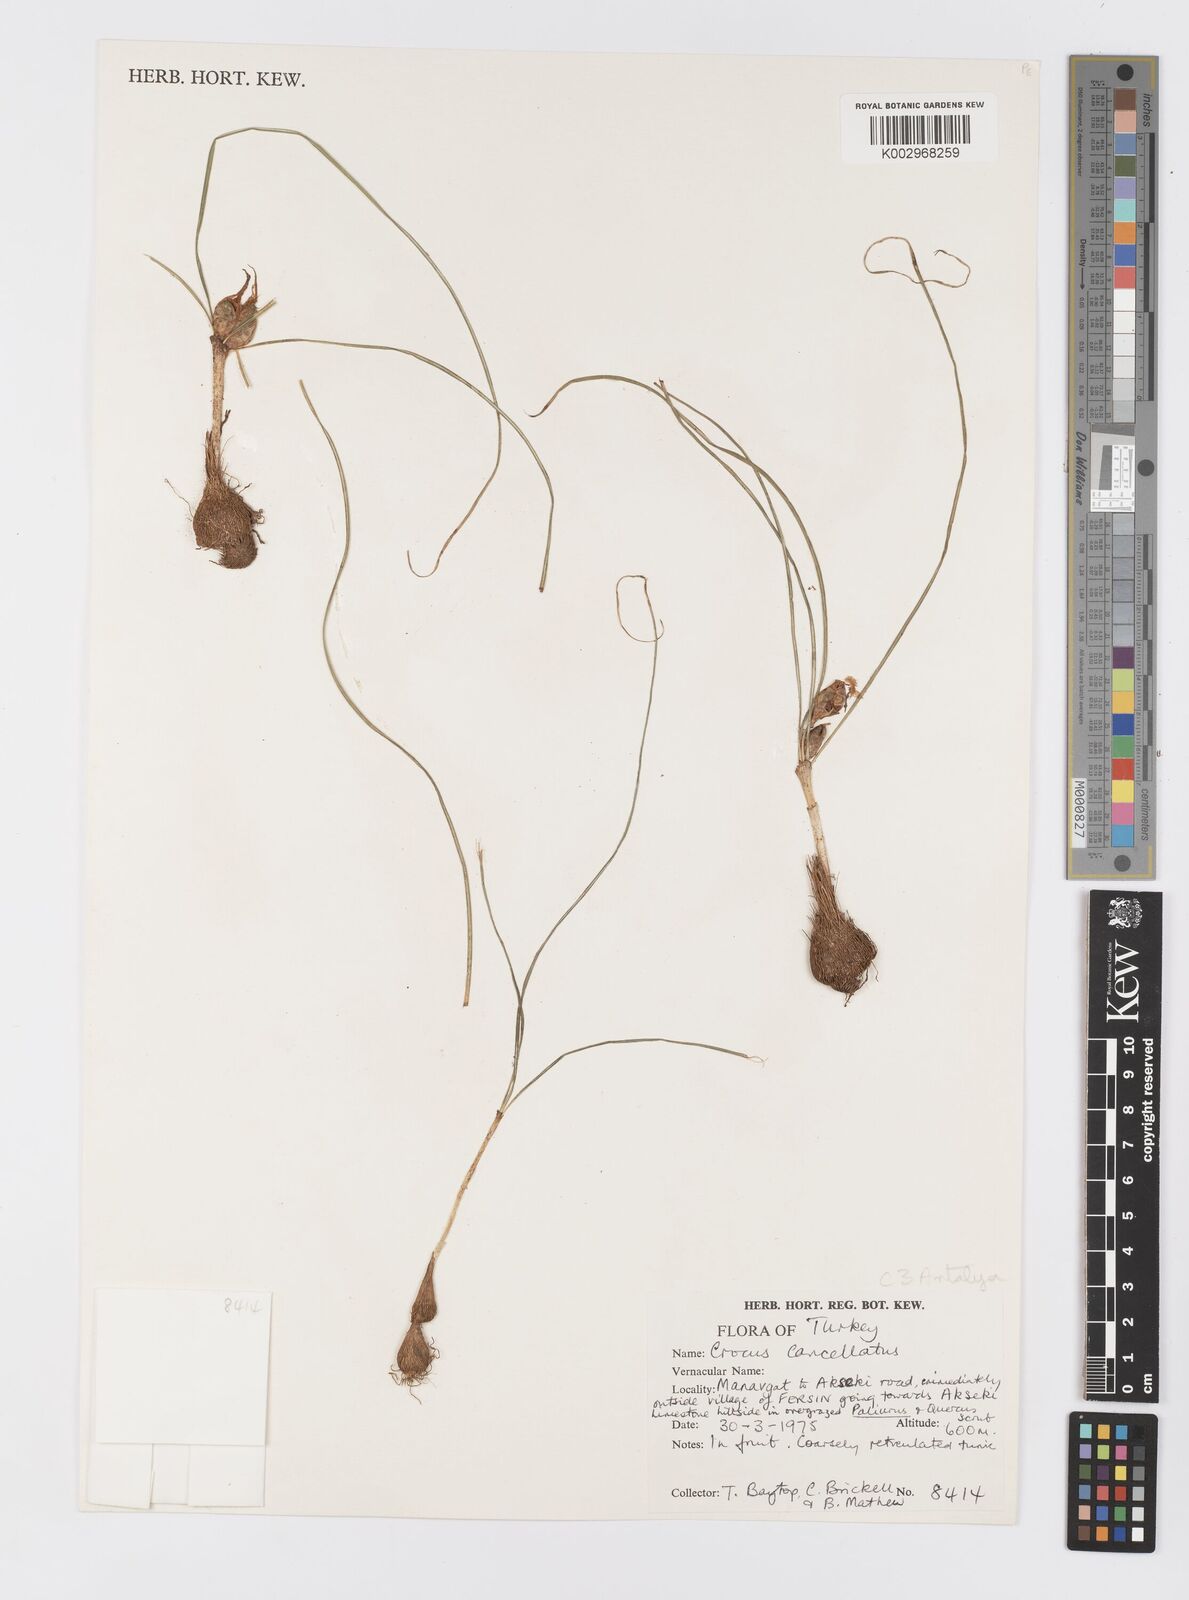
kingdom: Plantae
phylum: Tracheophyta
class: Liliopsida
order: Asparagales
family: Iridaceae
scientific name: Iridaceae
